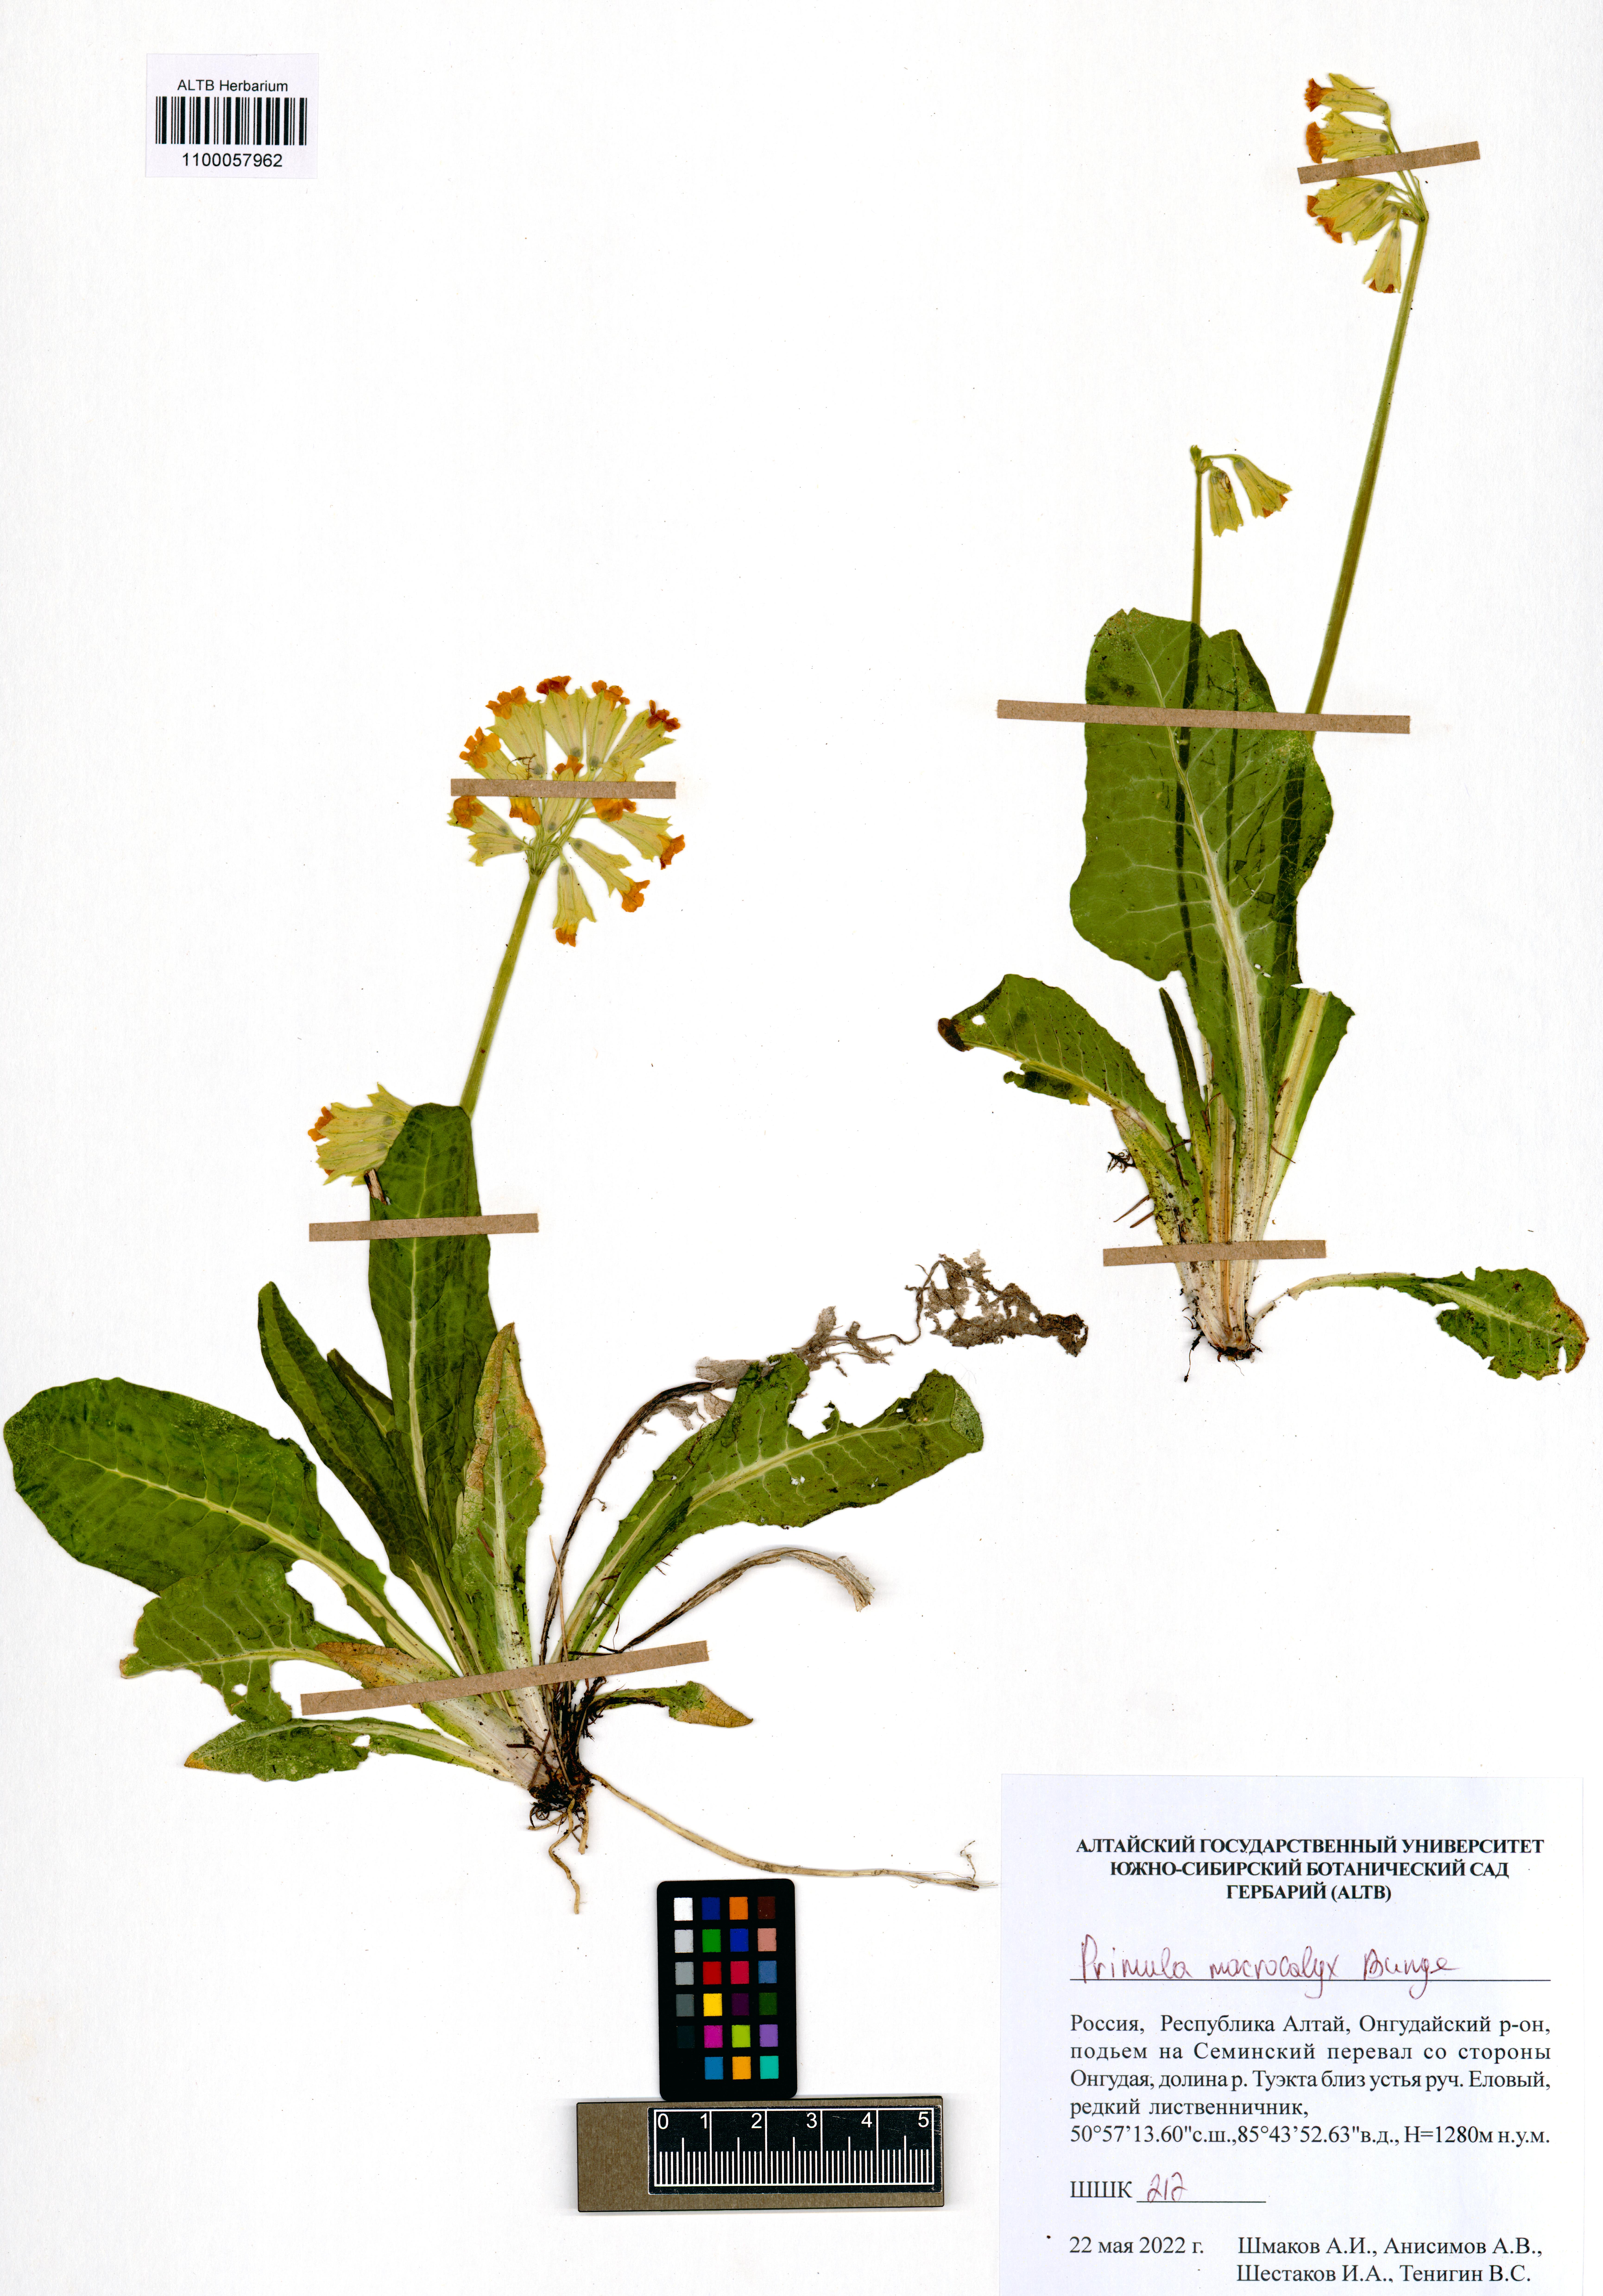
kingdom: Plantae
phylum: Tracheophyta
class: Magnoliopsida
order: Ericales
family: Primulaceae
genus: Primula
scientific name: Primula veris
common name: Cowslip
